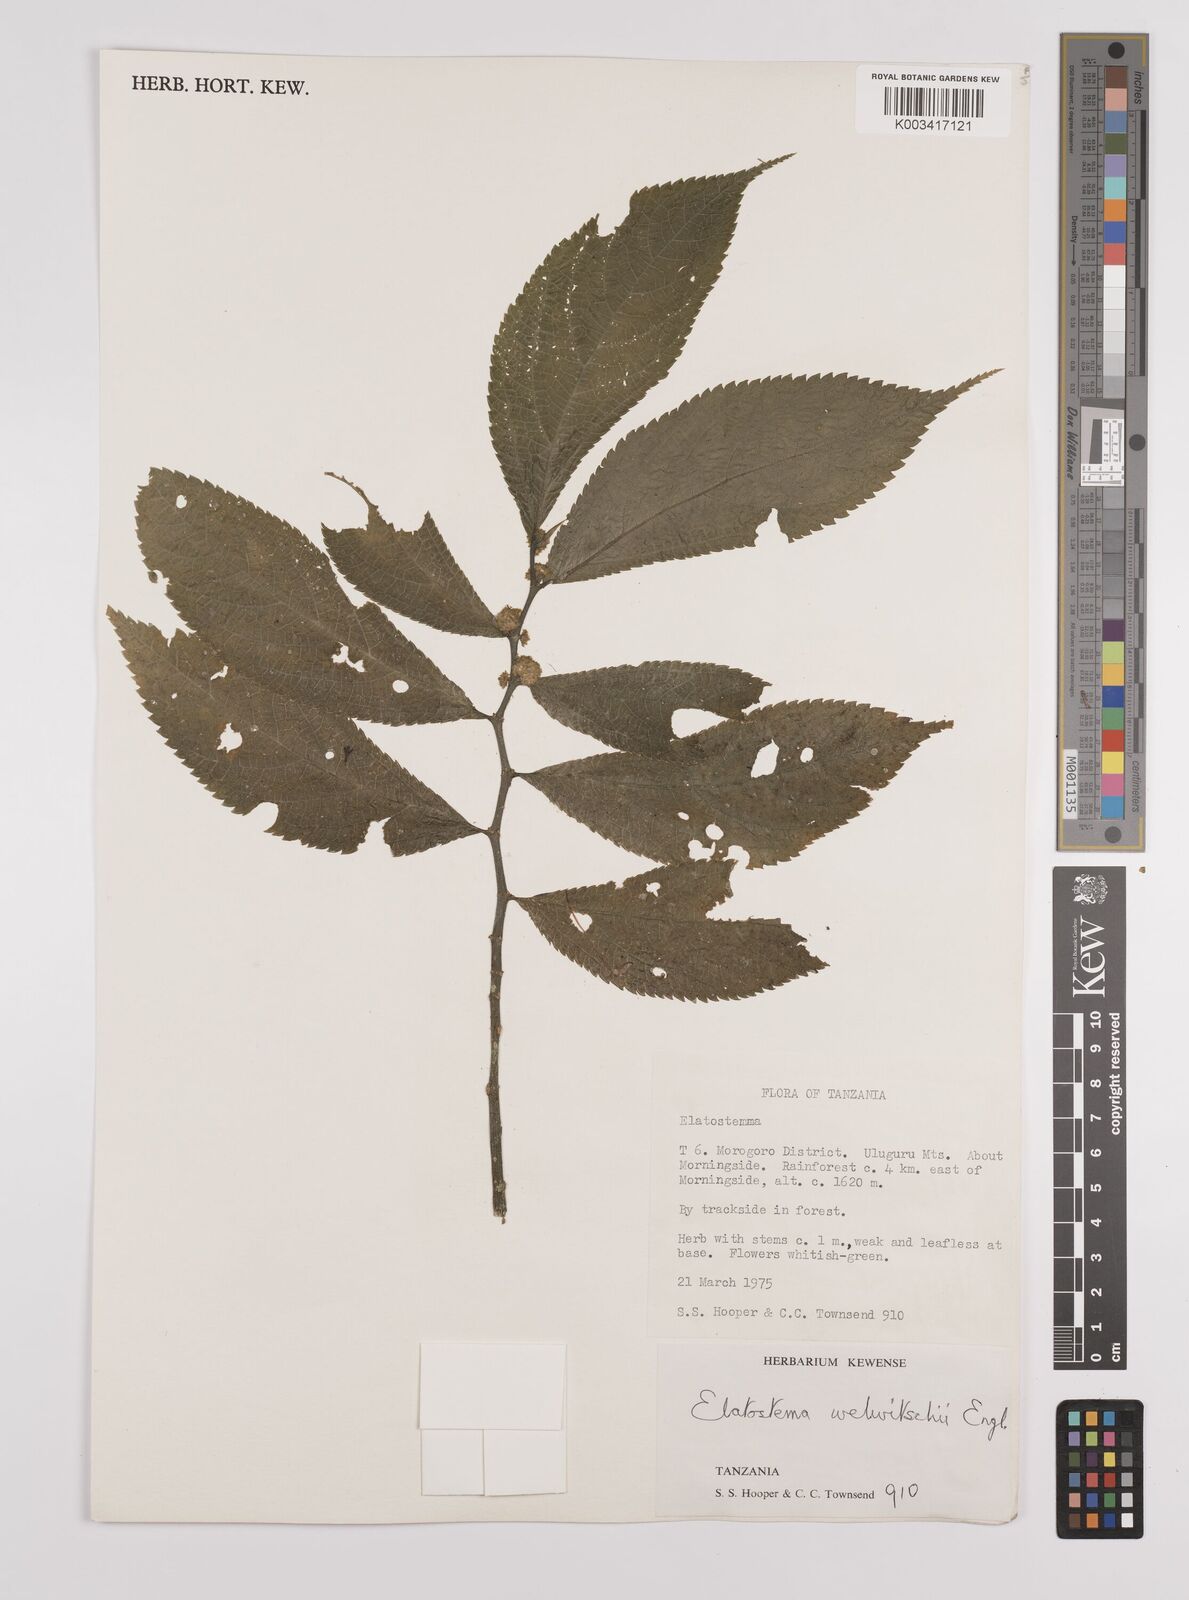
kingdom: Plantae
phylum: Tracheophyta
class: Magnoliopsida
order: Rosales
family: Urticaceae
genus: Elatostema
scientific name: Elatostema welwitschii
